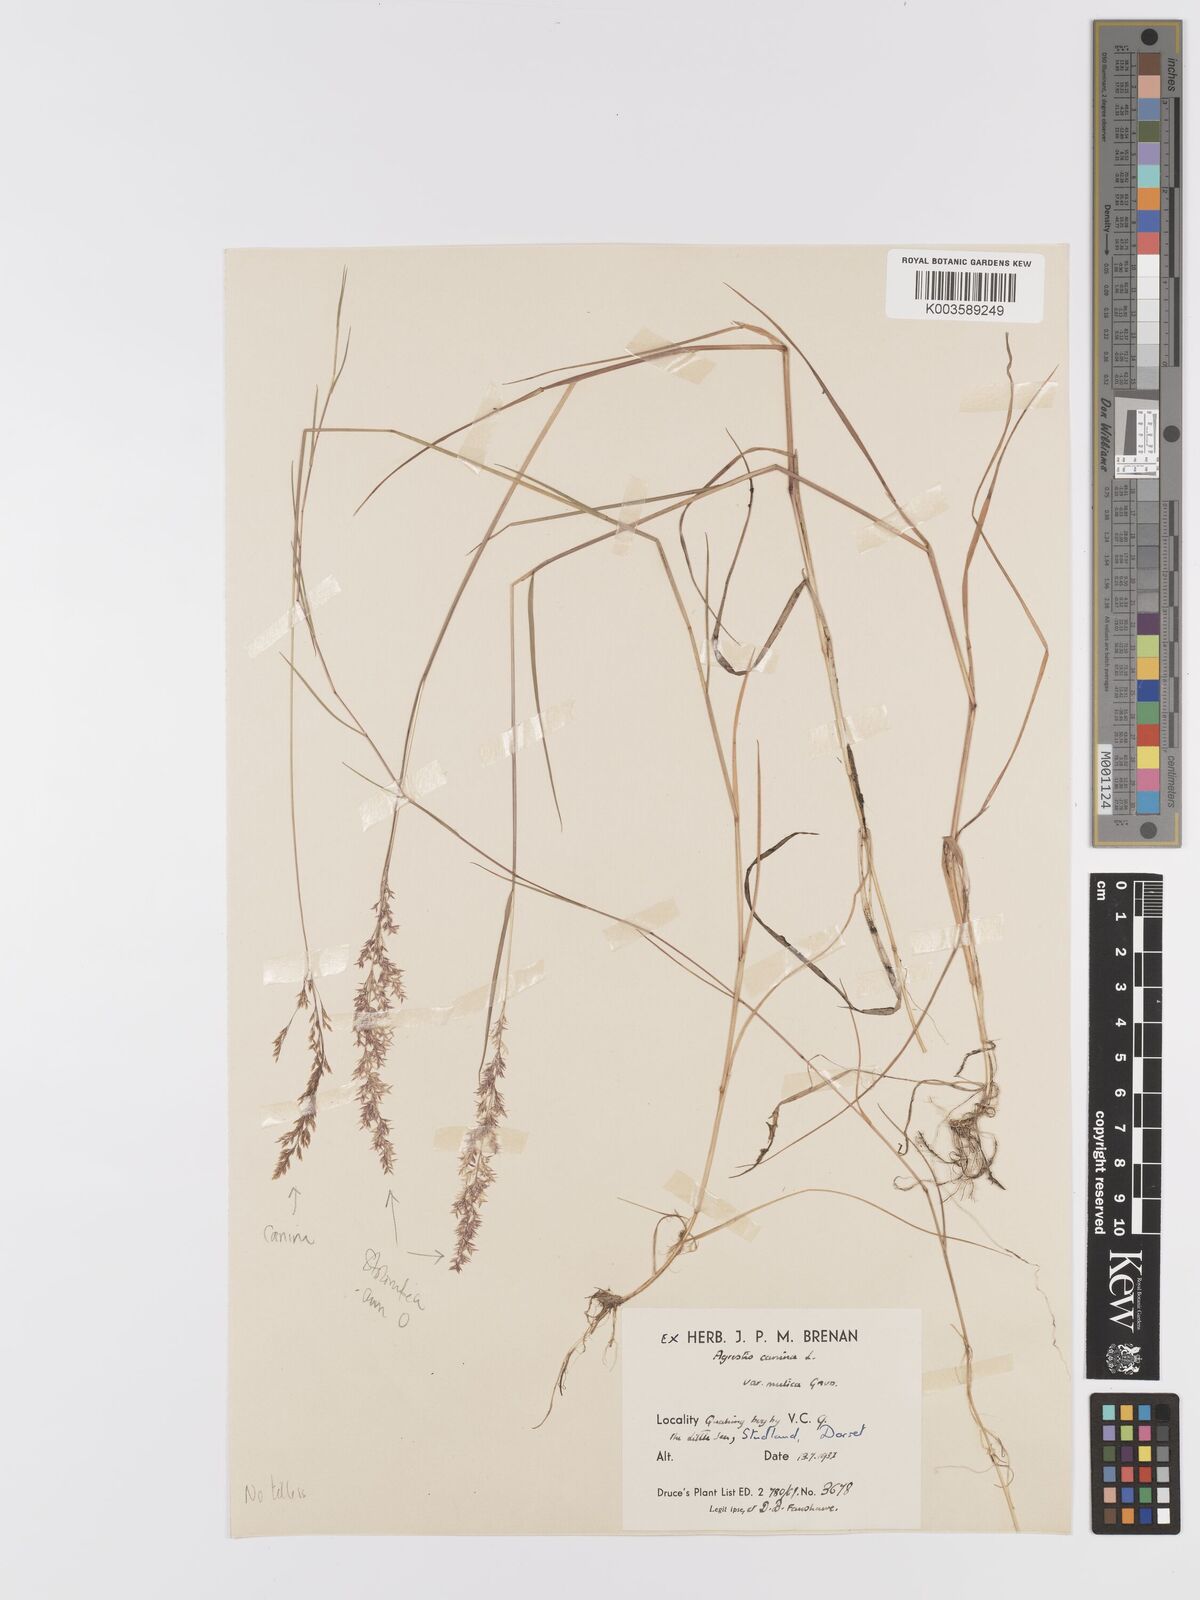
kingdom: Plantae
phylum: Tracheophyta
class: Liliopsida
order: Poales
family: Poaceae
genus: Agrostis
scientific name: Agrostis canina
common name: Velvet bent
